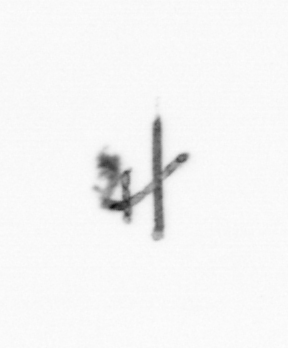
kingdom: Chromista
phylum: Ochrophyta
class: Bacillariophyceae
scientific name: Bacillariophyceae
